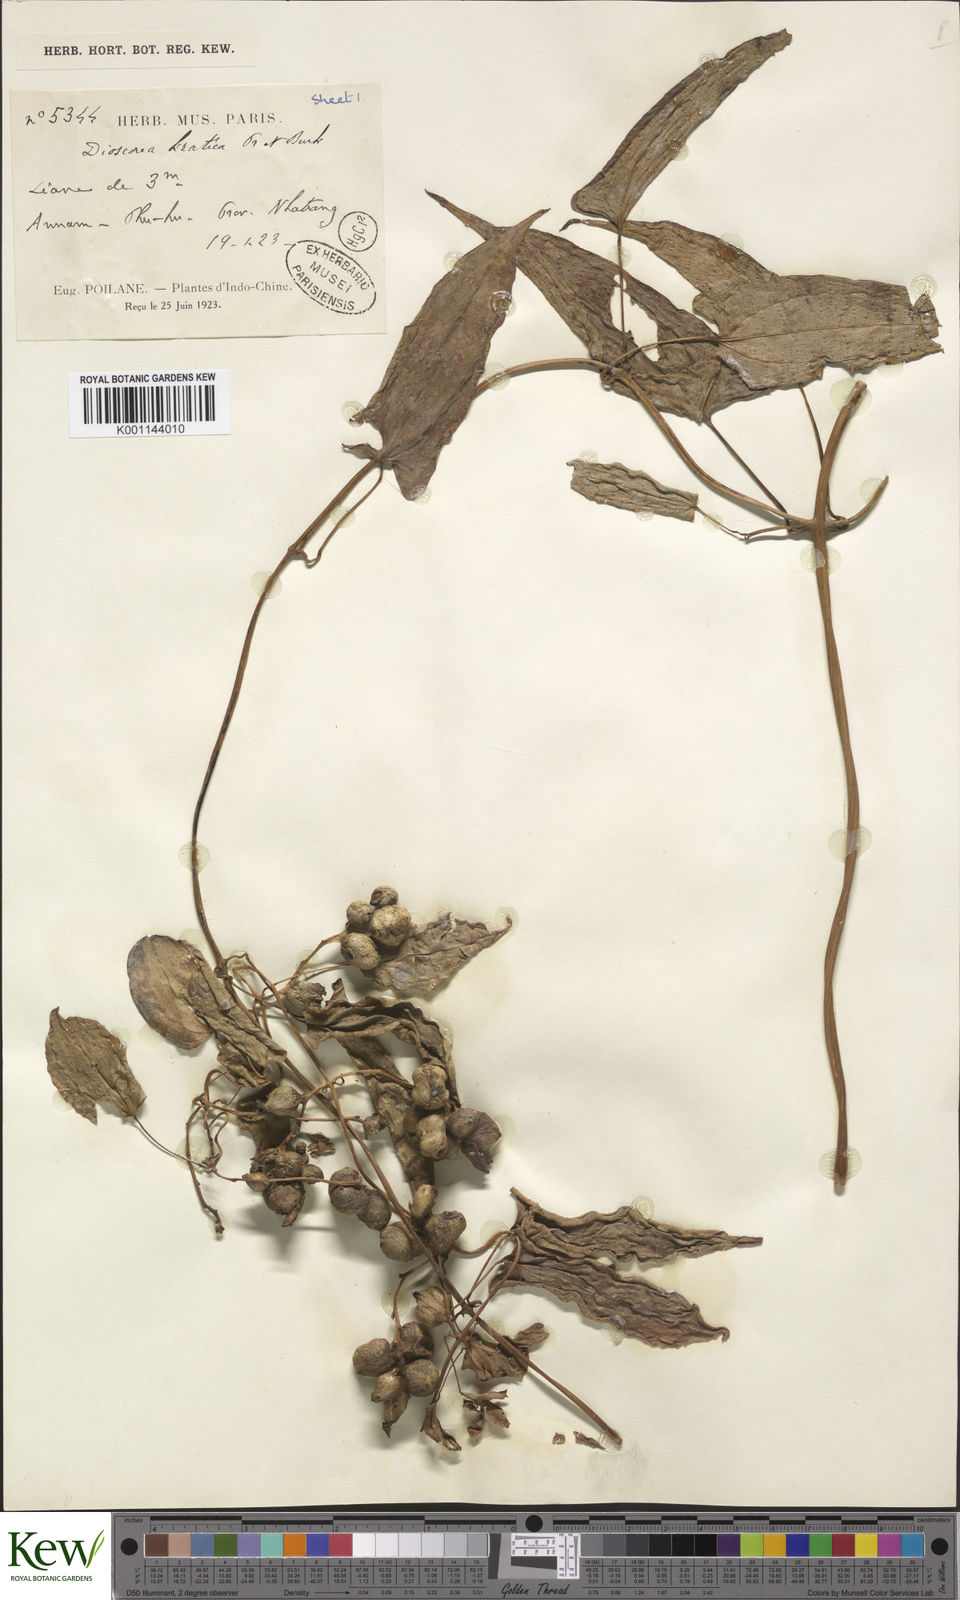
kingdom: Plantae
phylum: Tracheophyta
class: Liliopsida
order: Dioscoreales
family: Dioscoreaceae
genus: Dioscorea
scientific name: Dioscorea kratica
